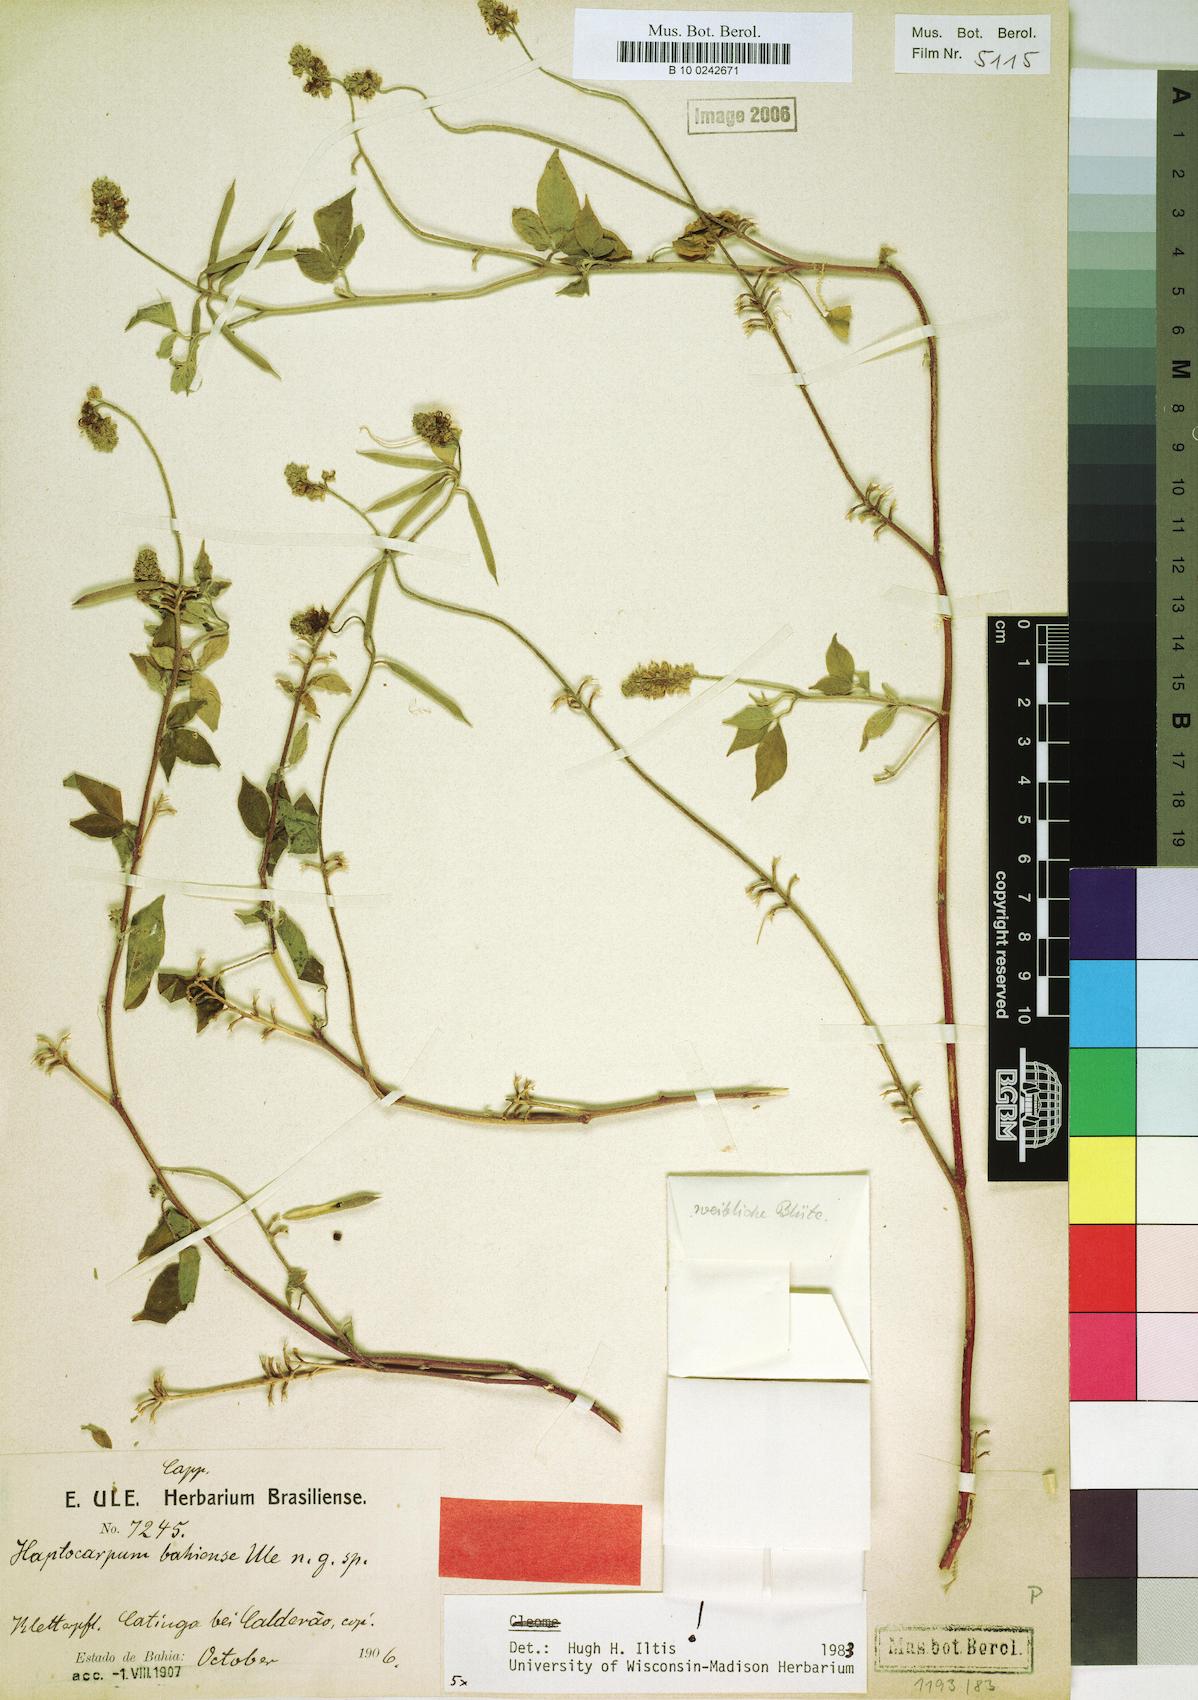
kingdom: Plantae
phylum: Tracheophyta
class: Magnoliopsida
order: Brassicales
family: Cleomaceae
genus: Haptocarpum
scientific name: Haptocarpum bahiense
